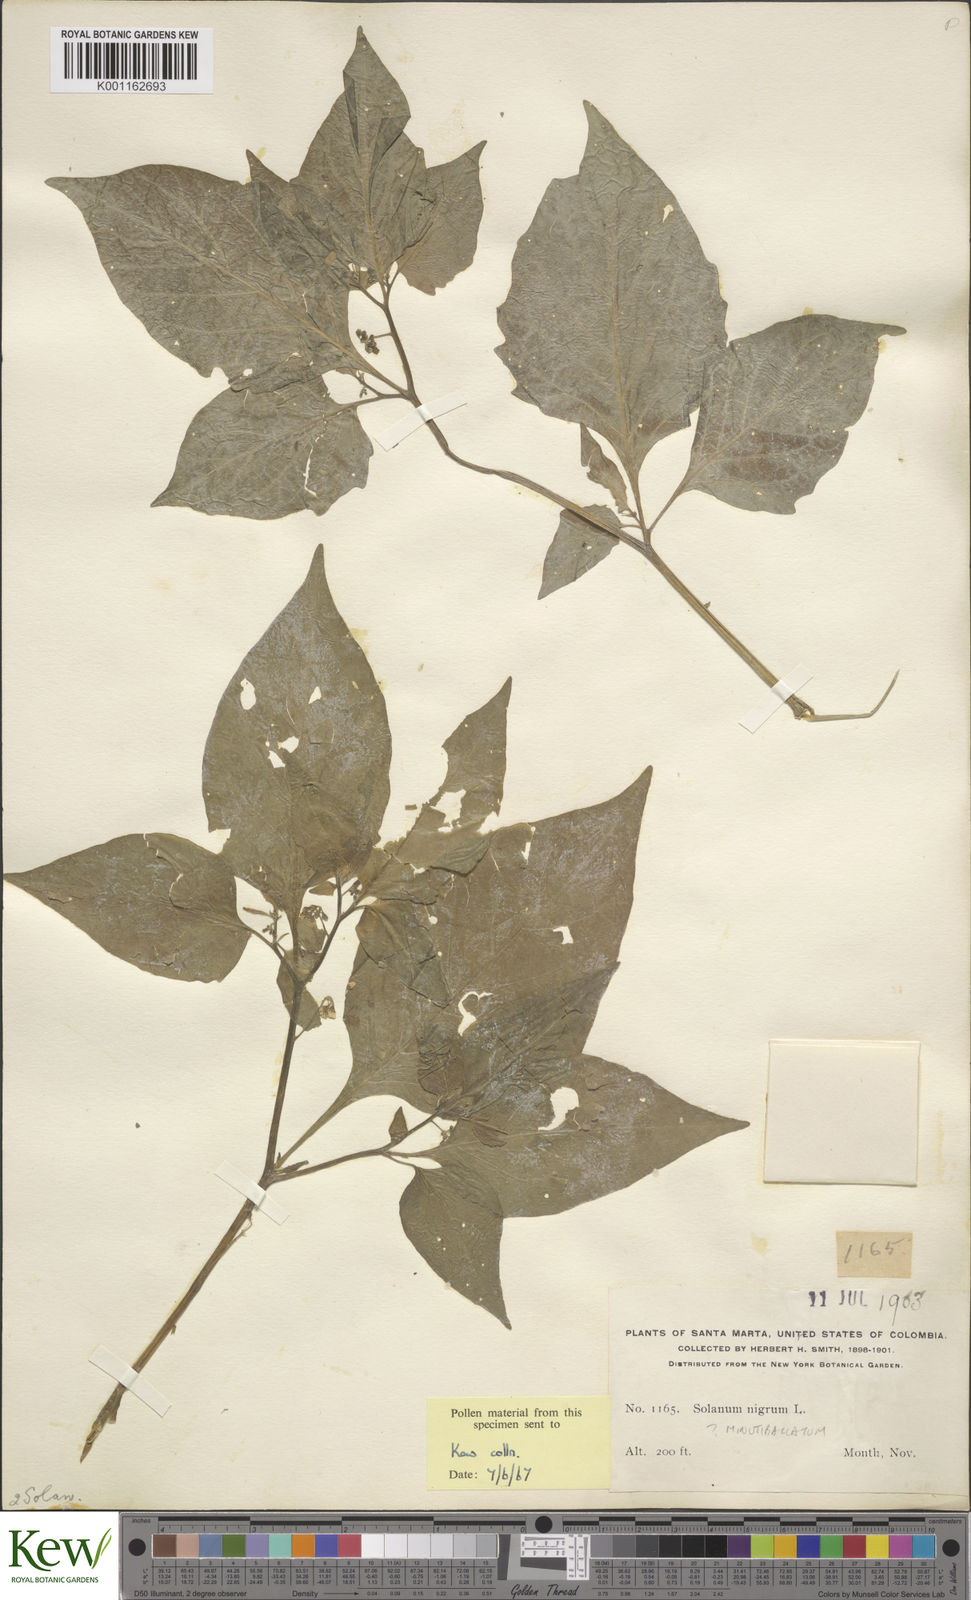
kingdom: Plantae
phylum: Tracheophyta
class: Magnoliopsida
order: Solanales
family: Solanaceae
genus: Solanum
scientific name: Solanum americanum
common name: American black nightshade
